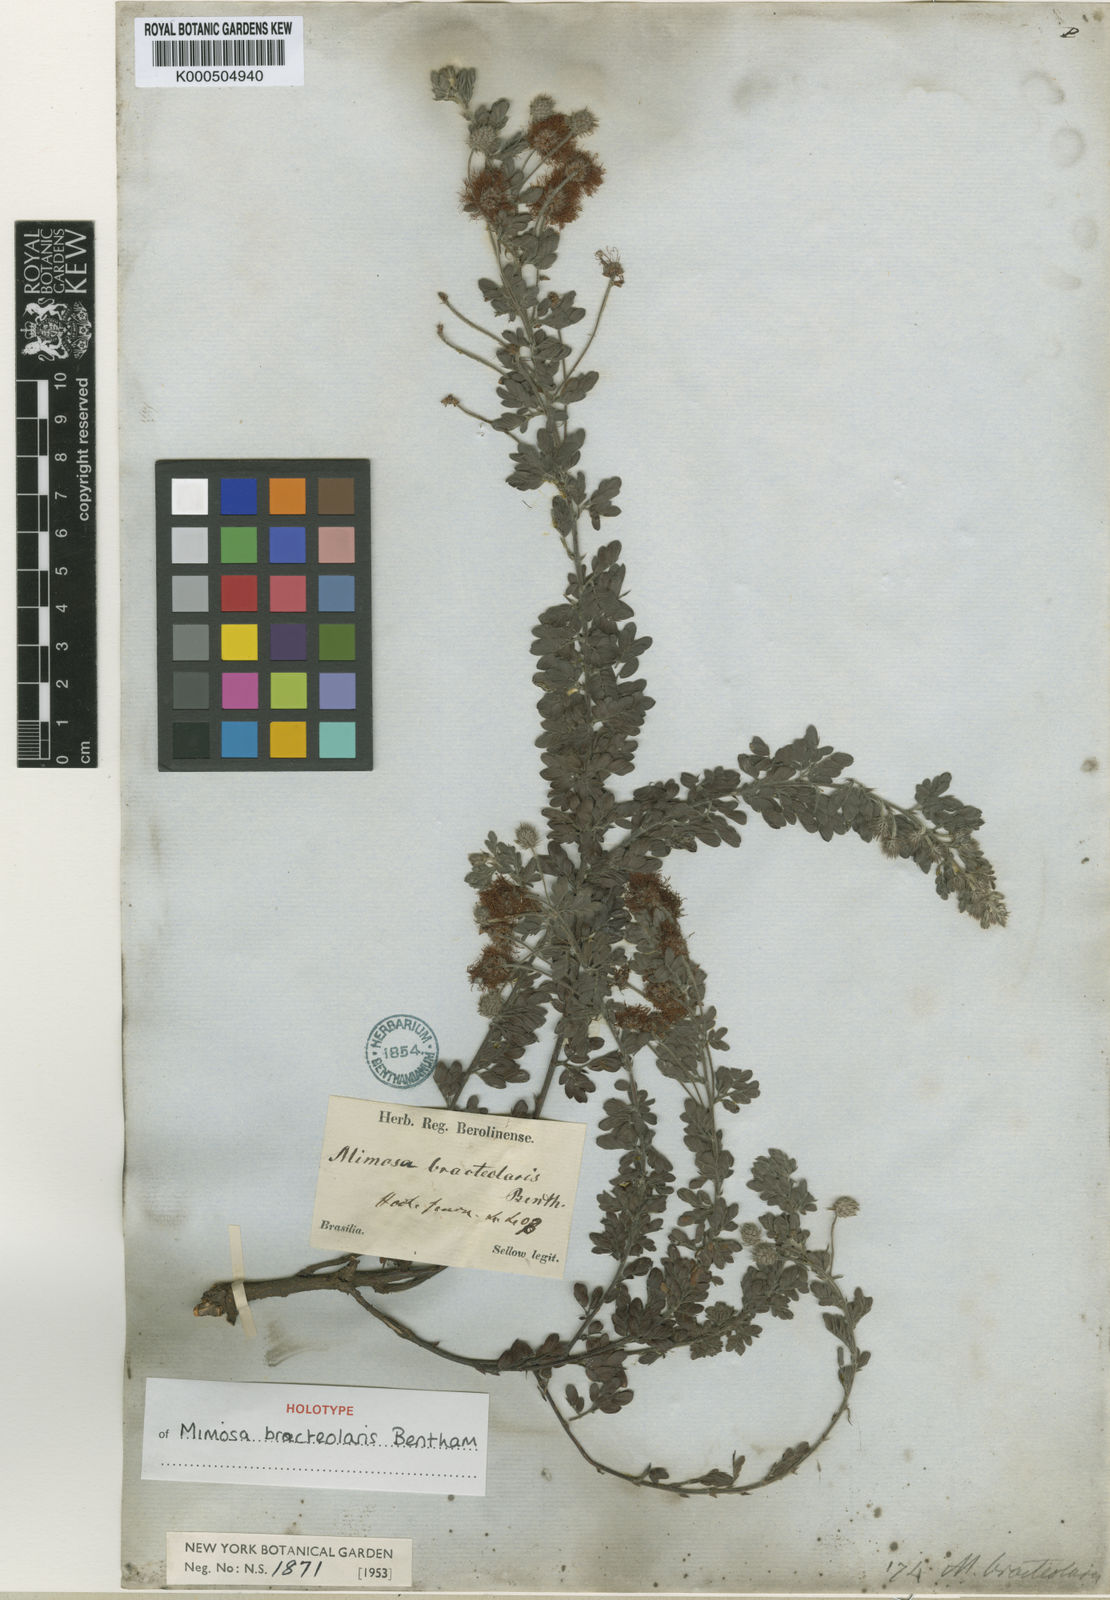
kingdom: Plantae
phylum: Tracheophyta
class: Magnoliopsida
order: Fabales
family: Fabaceae
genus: Mimosa
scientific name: Mimosa bracteolaris
